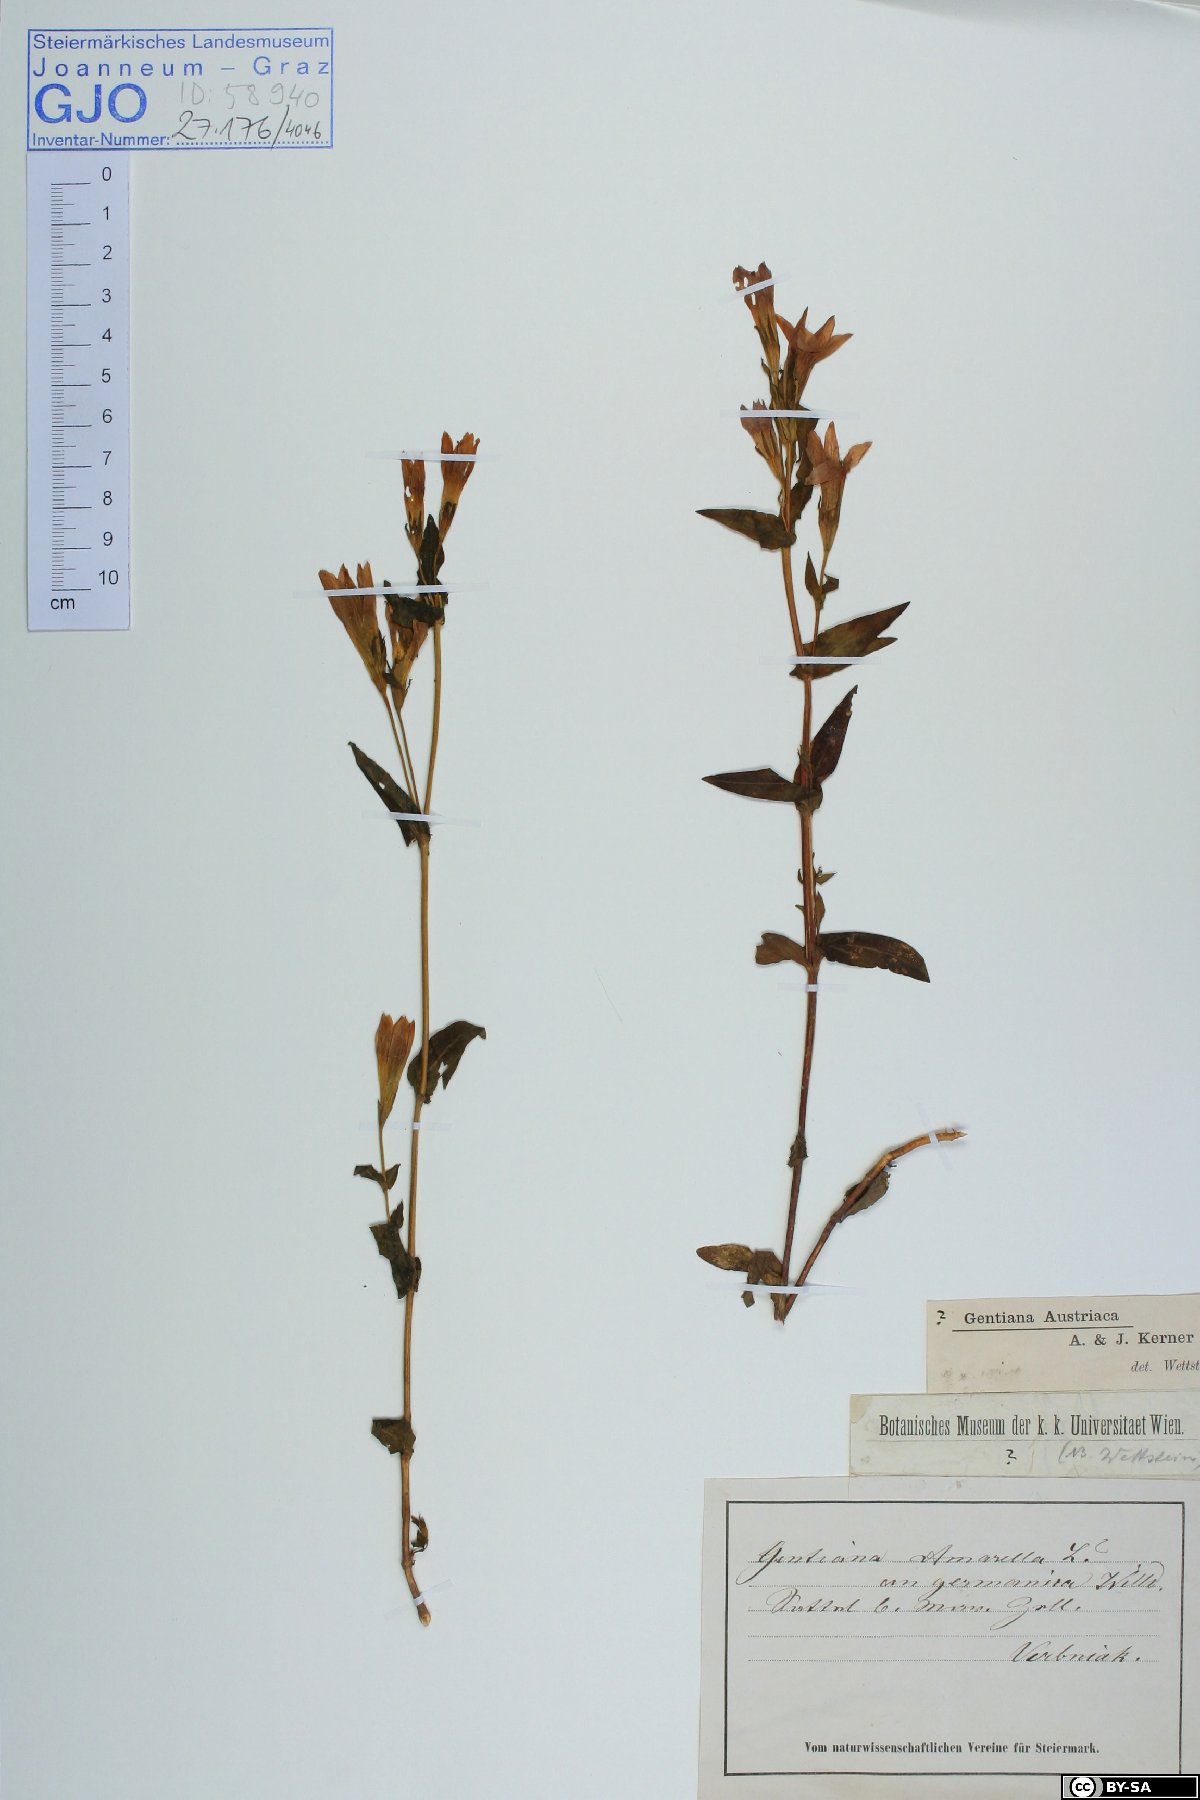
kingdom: Plantae
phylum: Tracheophyta
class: Magnoliopsida
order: Gentianales
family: Gentianaceae
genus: Gentianella
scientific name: Gentianella austriaca
